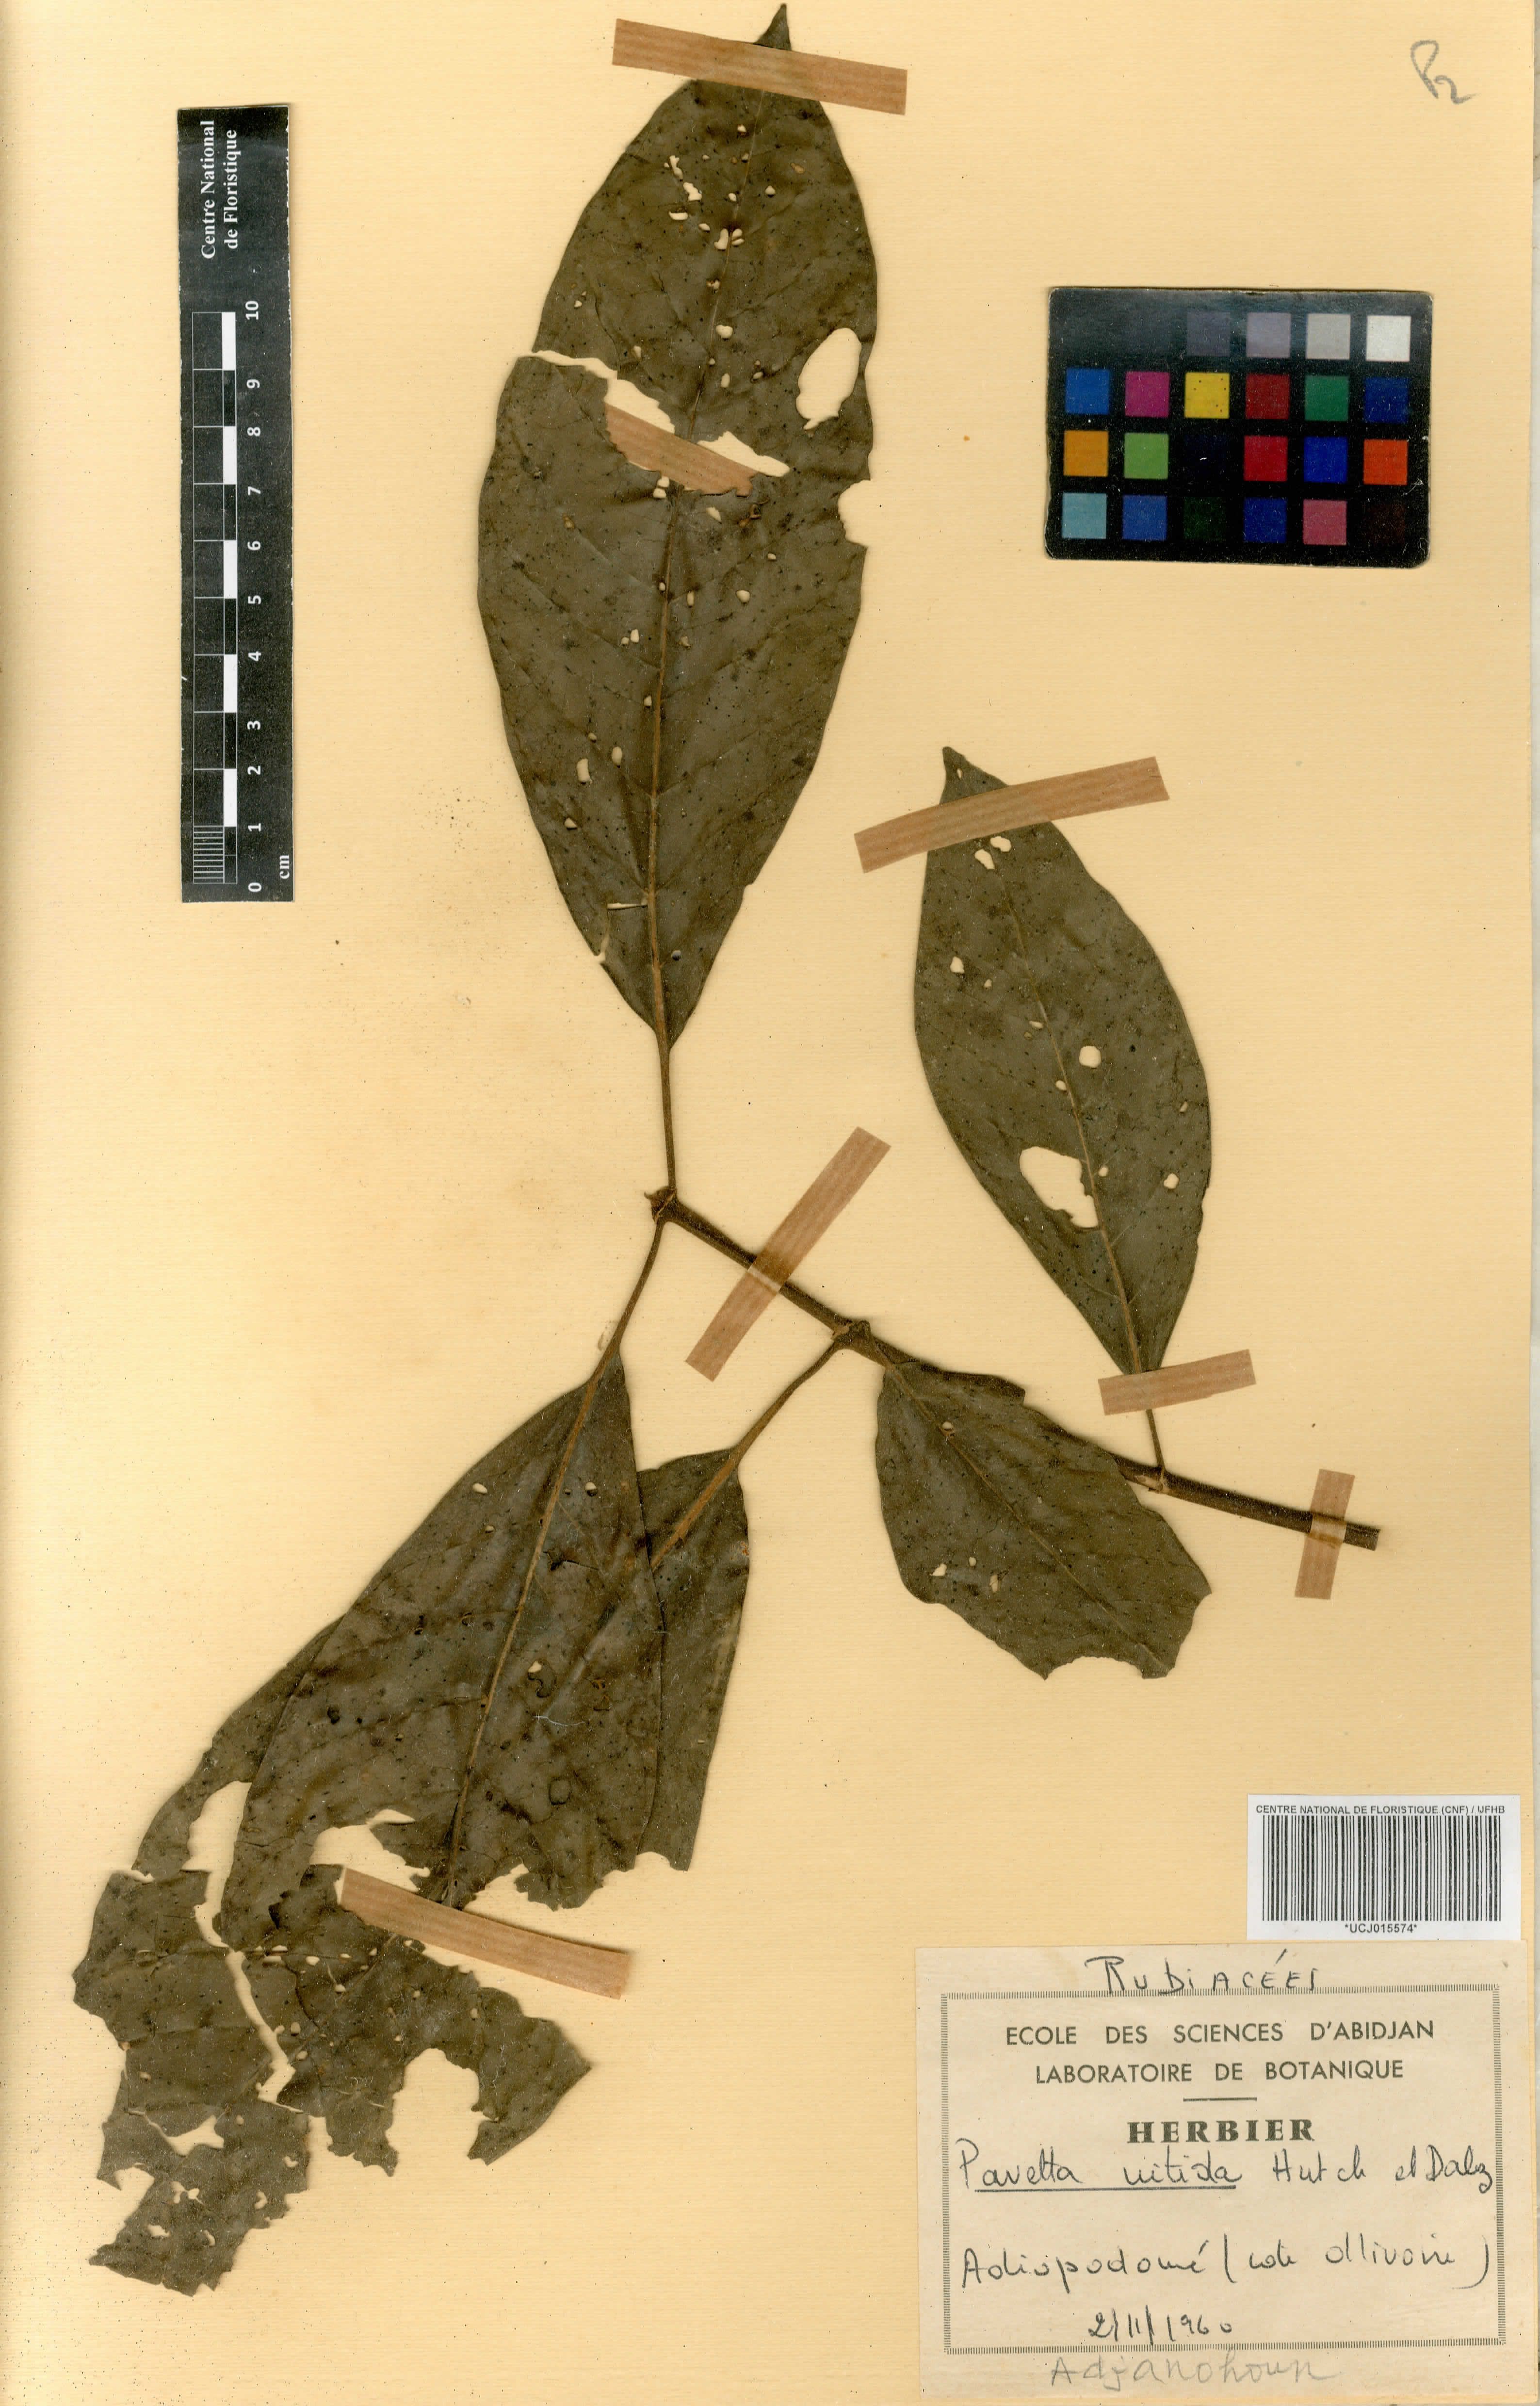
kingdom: Plantae
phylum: Tracheophyta
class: Magnoliopsida
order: Gentianales
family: Rubiaceae
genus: Pavetta
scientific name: Pavetta corymbosa
